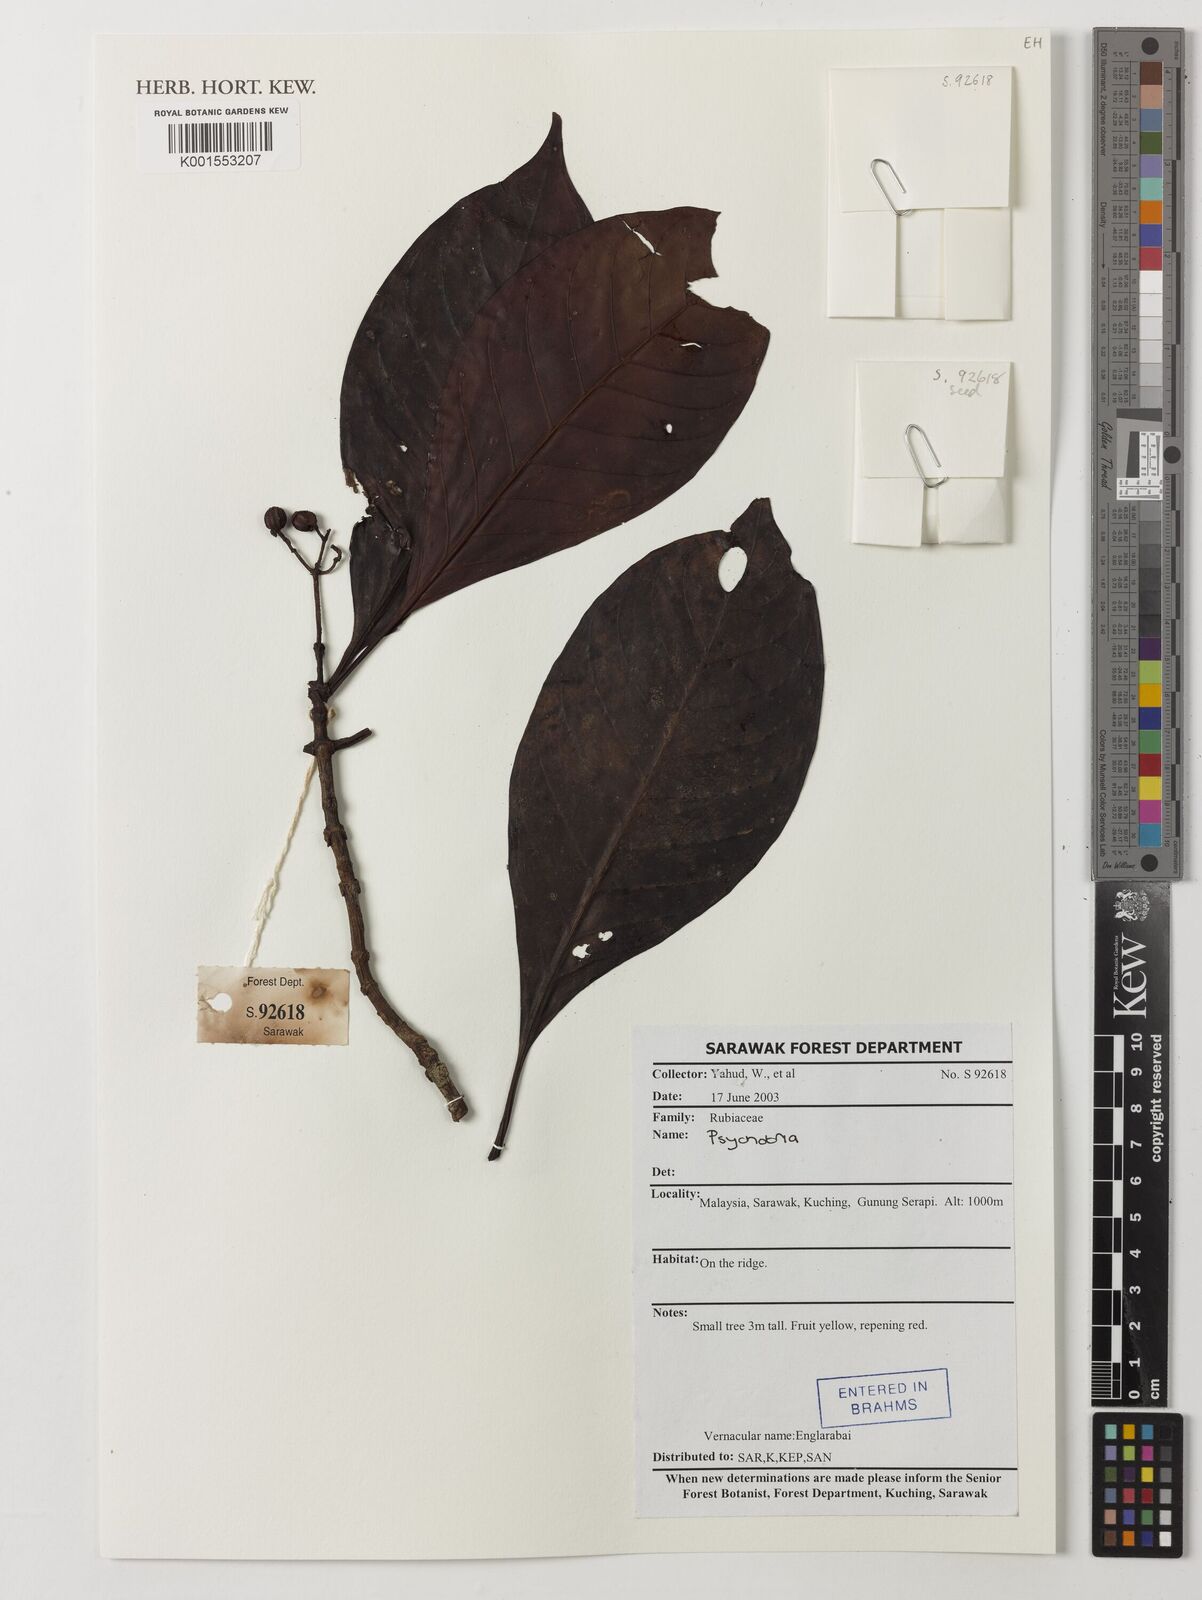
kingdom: Plantae
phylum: Tracheophyta
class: Magnoliopsida
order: Gentianales
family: Rubiaceae
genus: Psychotria
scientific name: Psychotria
